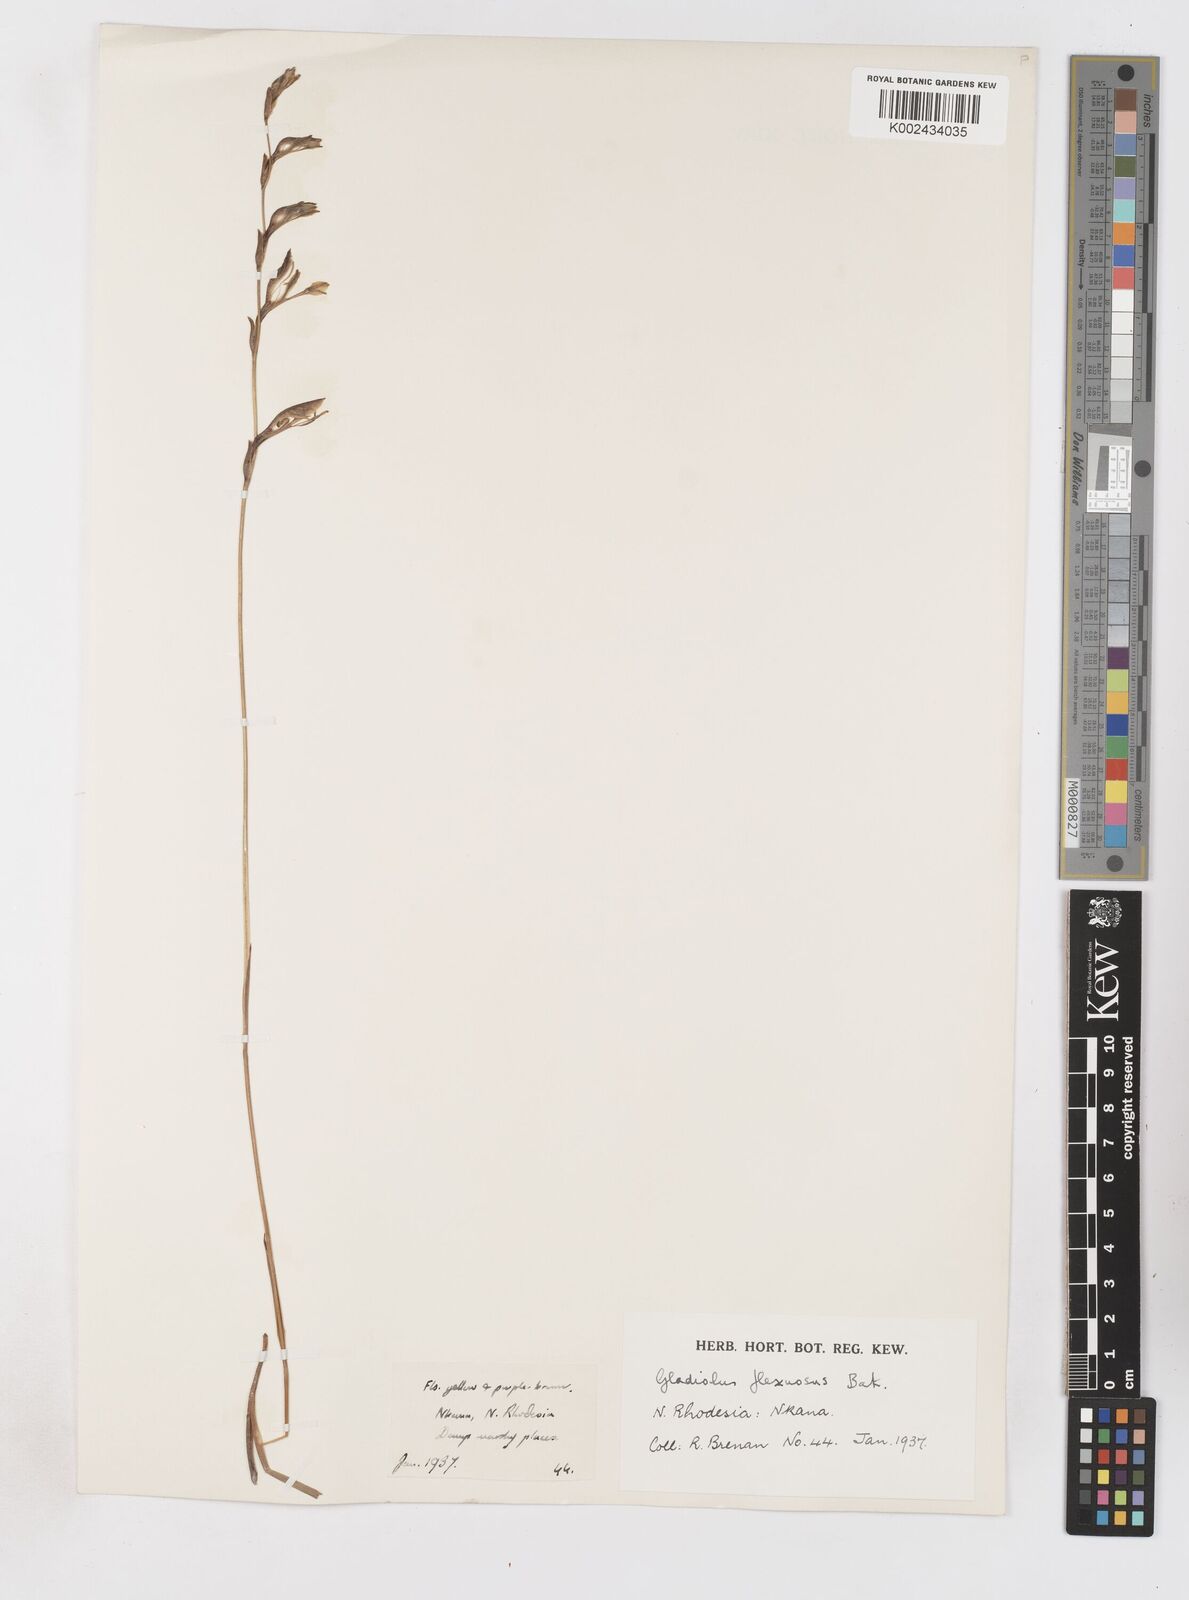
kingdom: Plantae
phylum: Tracheophyta
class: Liliopsida
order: Asparagales
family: Iridaceae
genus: Gladiolus
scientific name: Gladiolus atropurpureus
